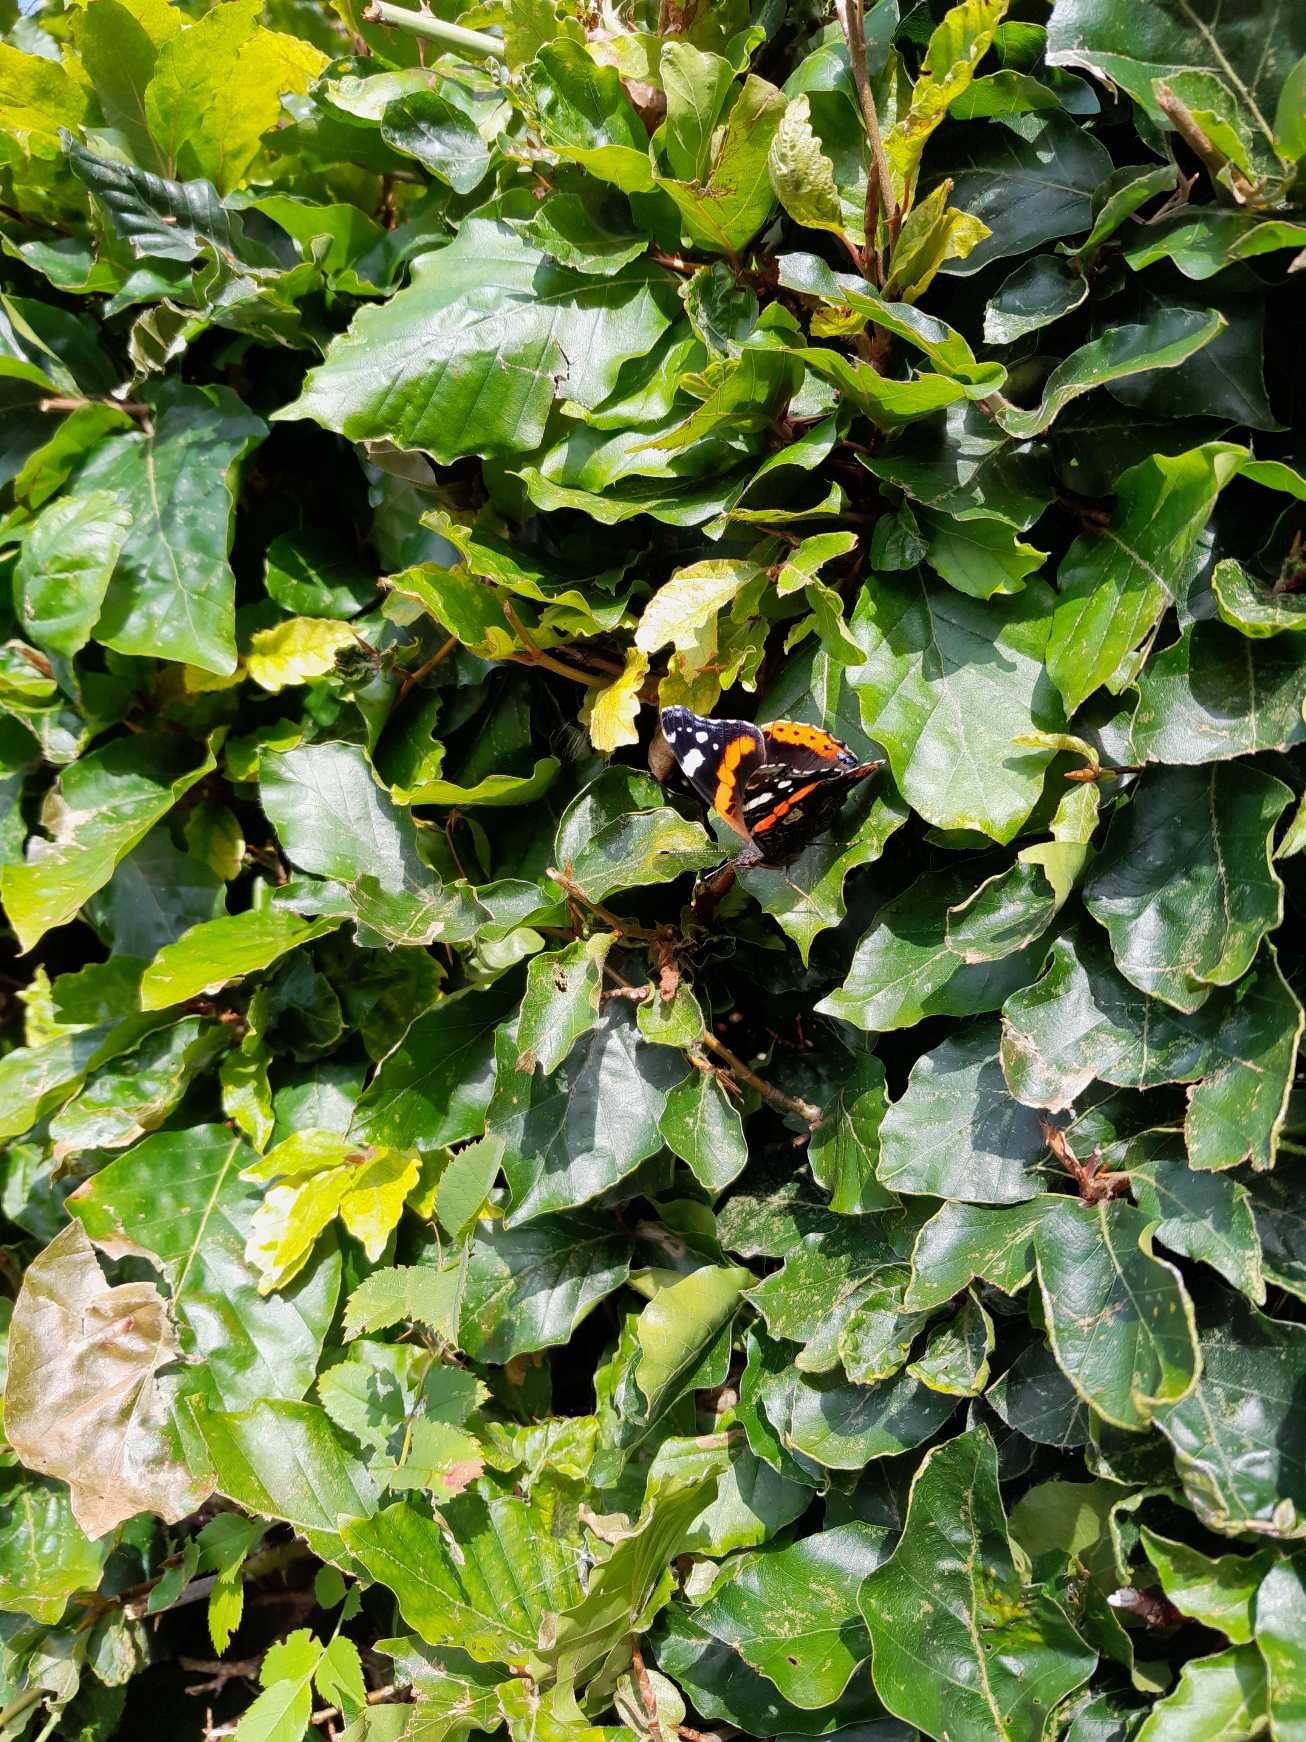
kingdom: Animalia
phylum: Arthropoda
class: Insecta
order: Lepidoptera
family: Nymphalidae
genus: Vanessa
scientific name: Vanessa atalanta
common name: Admiral
